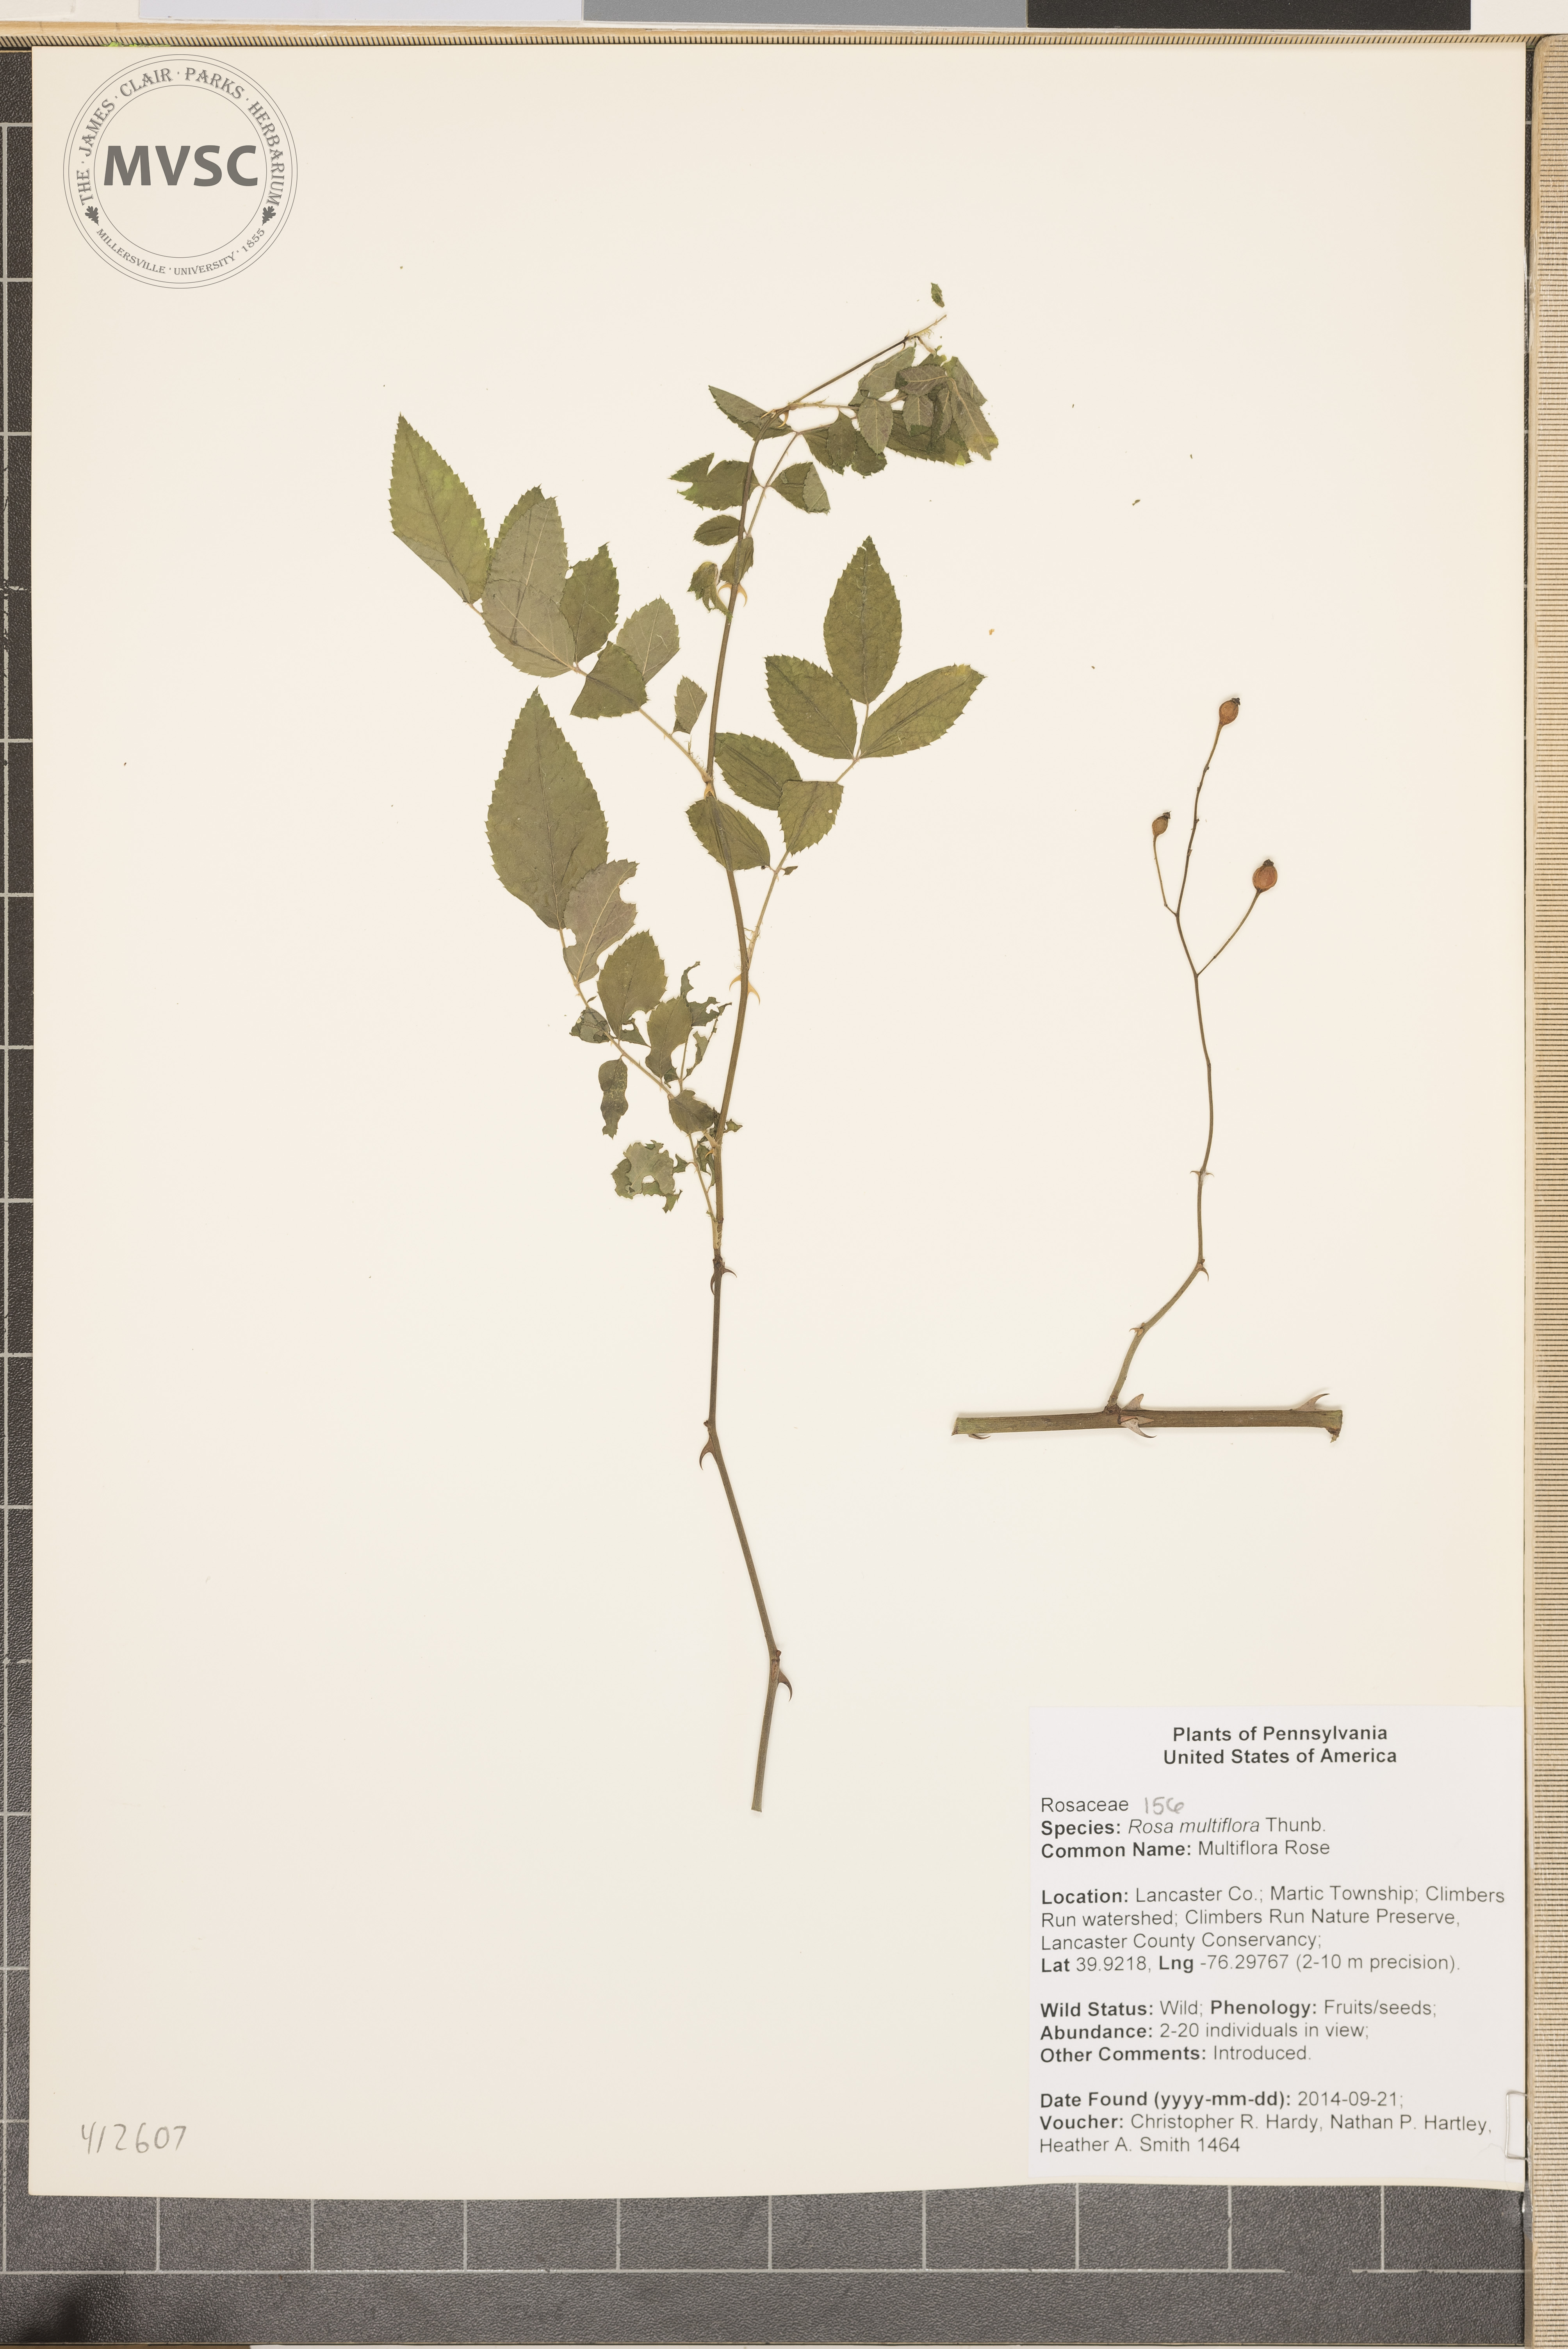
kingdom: Plantae
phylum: Tracheophyta
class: Magnoliopsida
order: Rosales
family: Rosaceae
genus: Rosa
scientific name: Rosa multiflora
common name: multiflora rose
